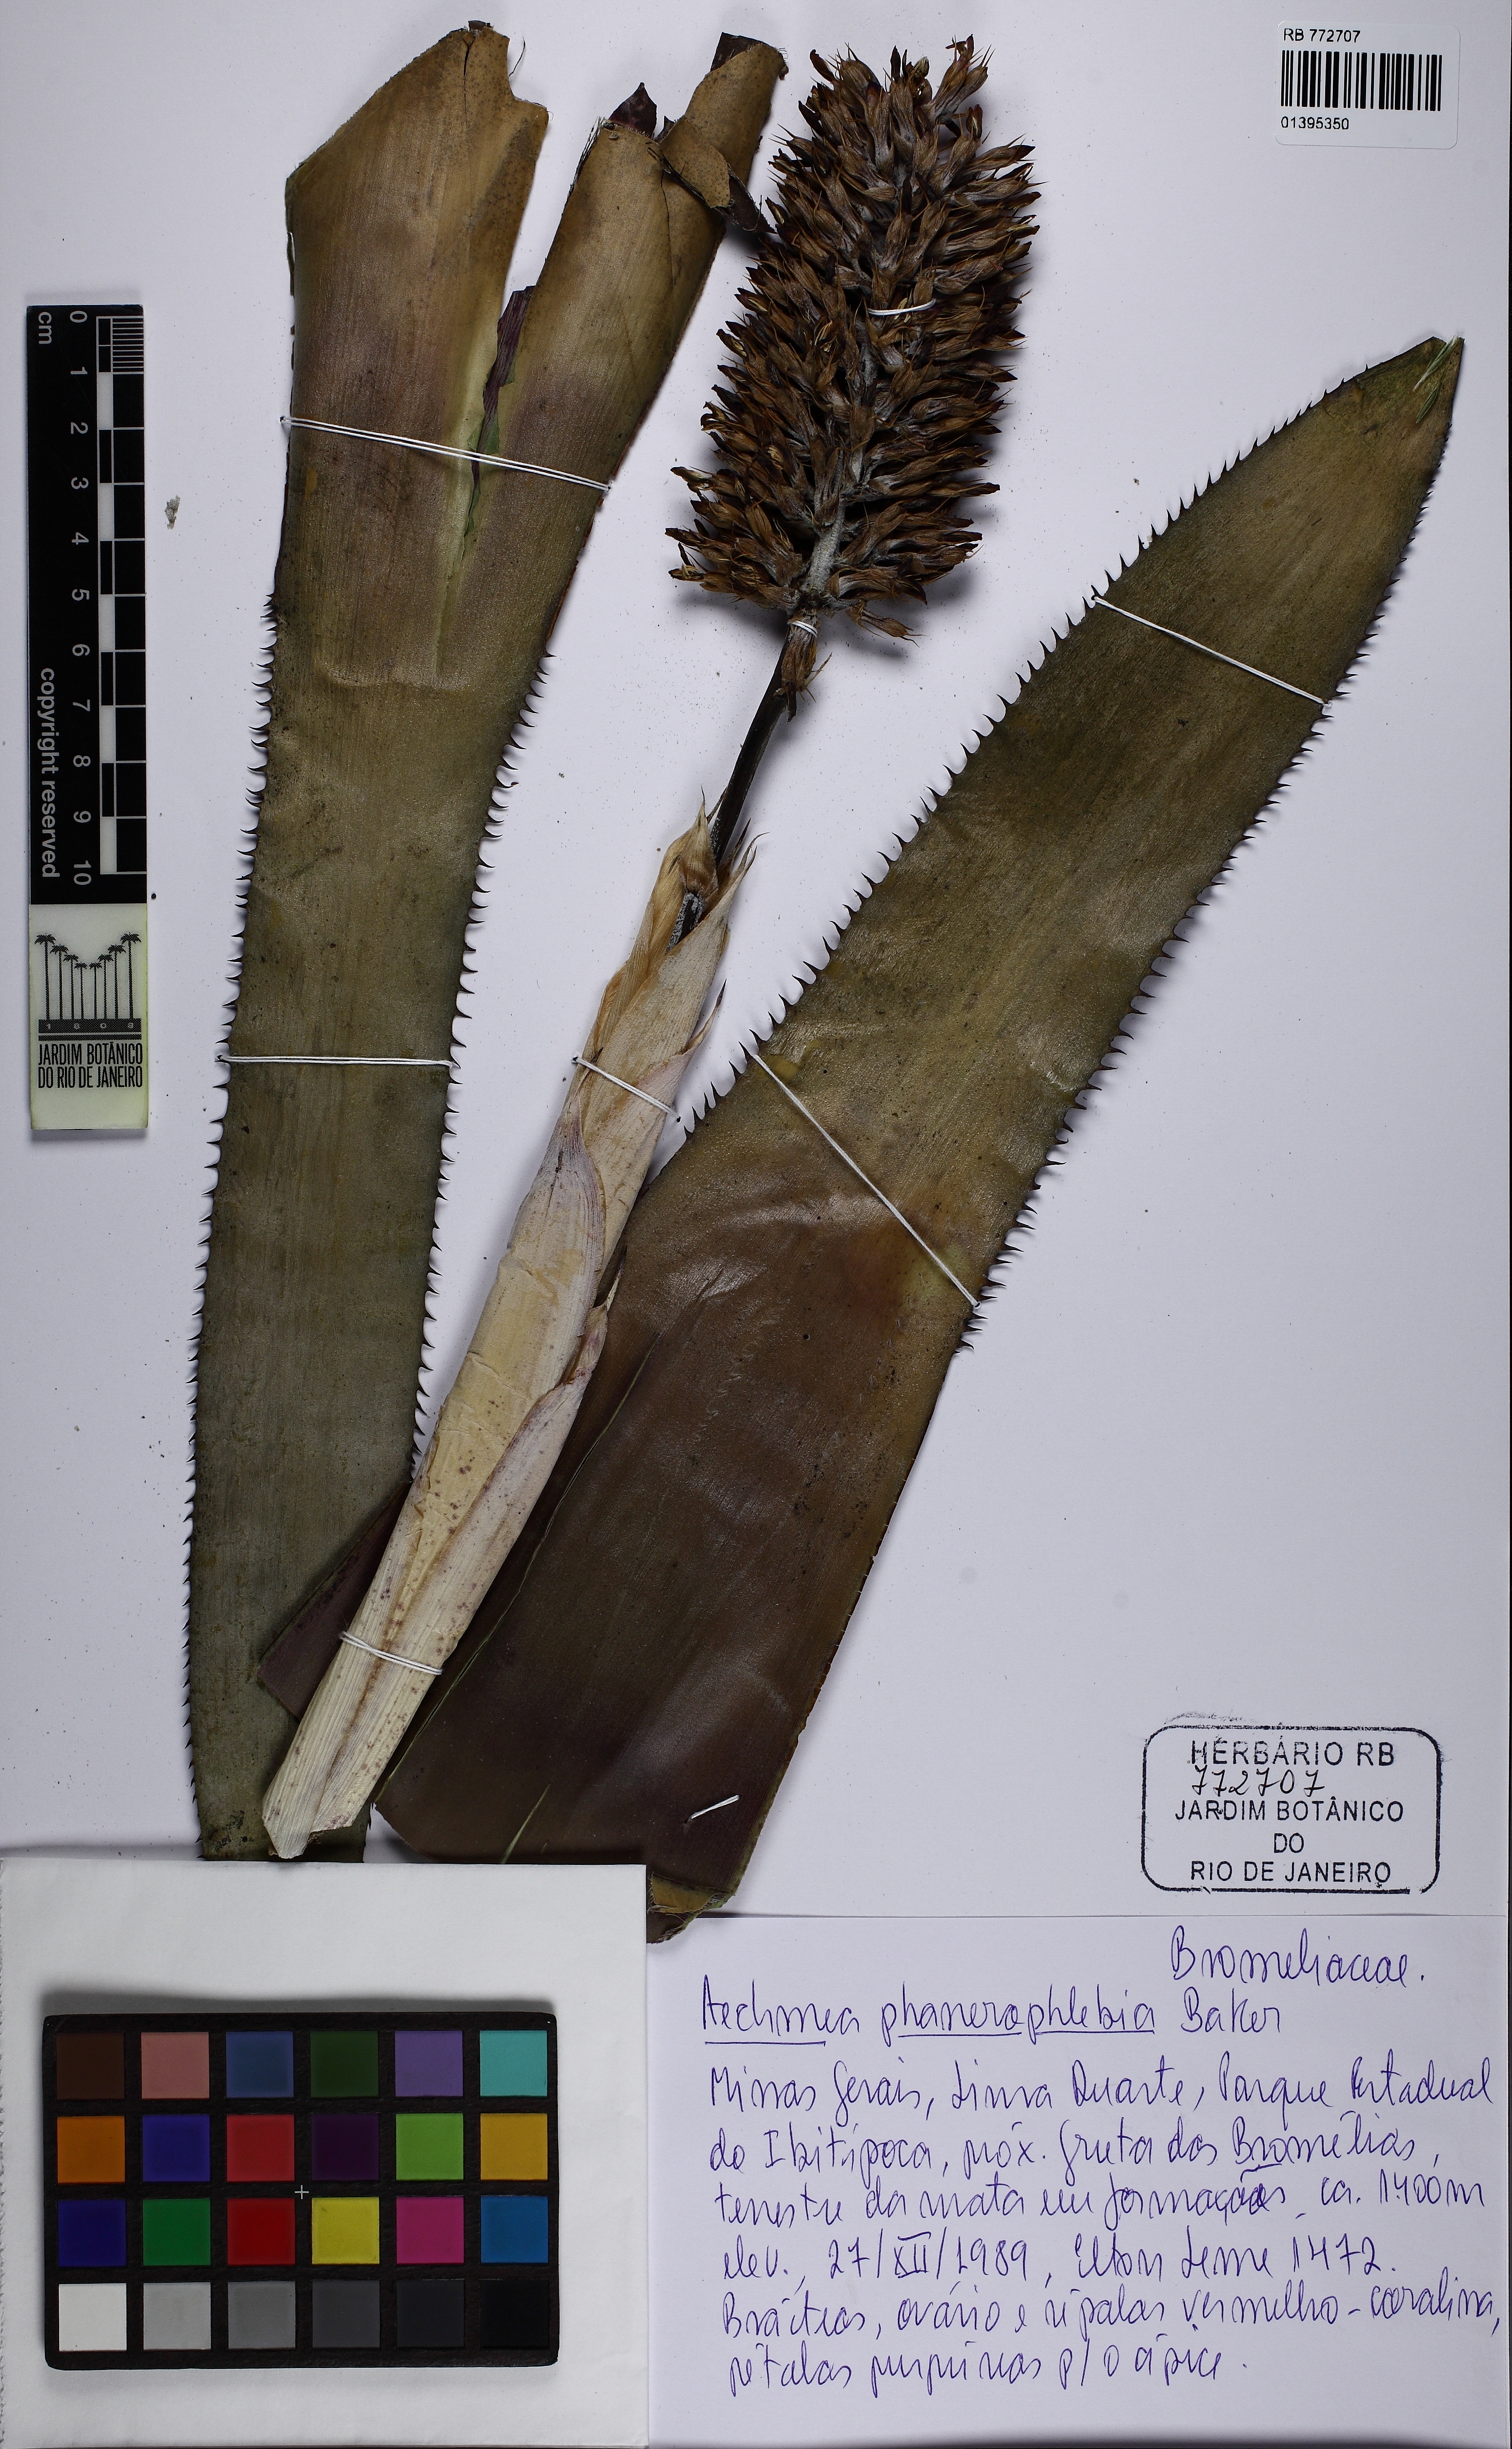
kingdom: Plantae
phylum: Tracheophyta
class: Liliopsida
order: Poales
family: Bromeliaceae
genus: Aechmea
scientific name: Aechmea phanerophlebia
